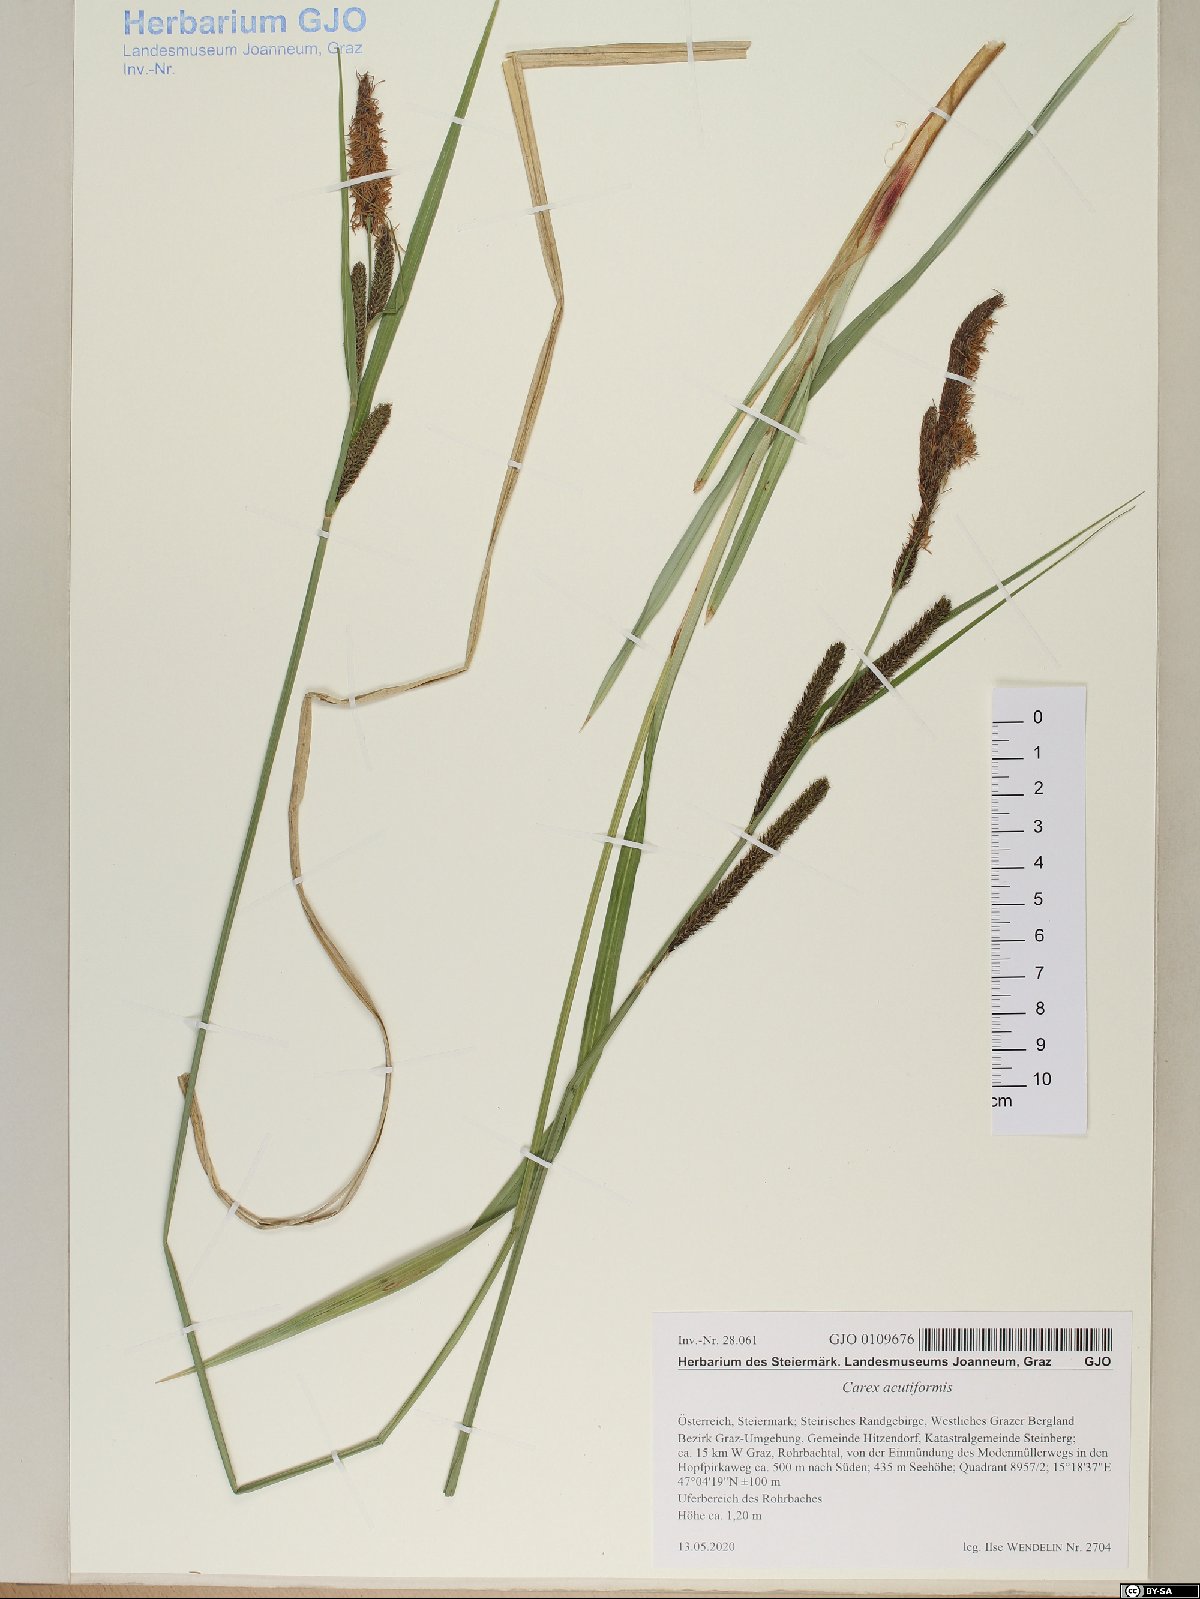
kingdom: Plantae
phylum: Tracheophyta
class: Liliopsida
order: Poales
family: Cyperaceae
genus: Carex
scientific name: Carex acutiformis
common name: Lesser pond-sedge
